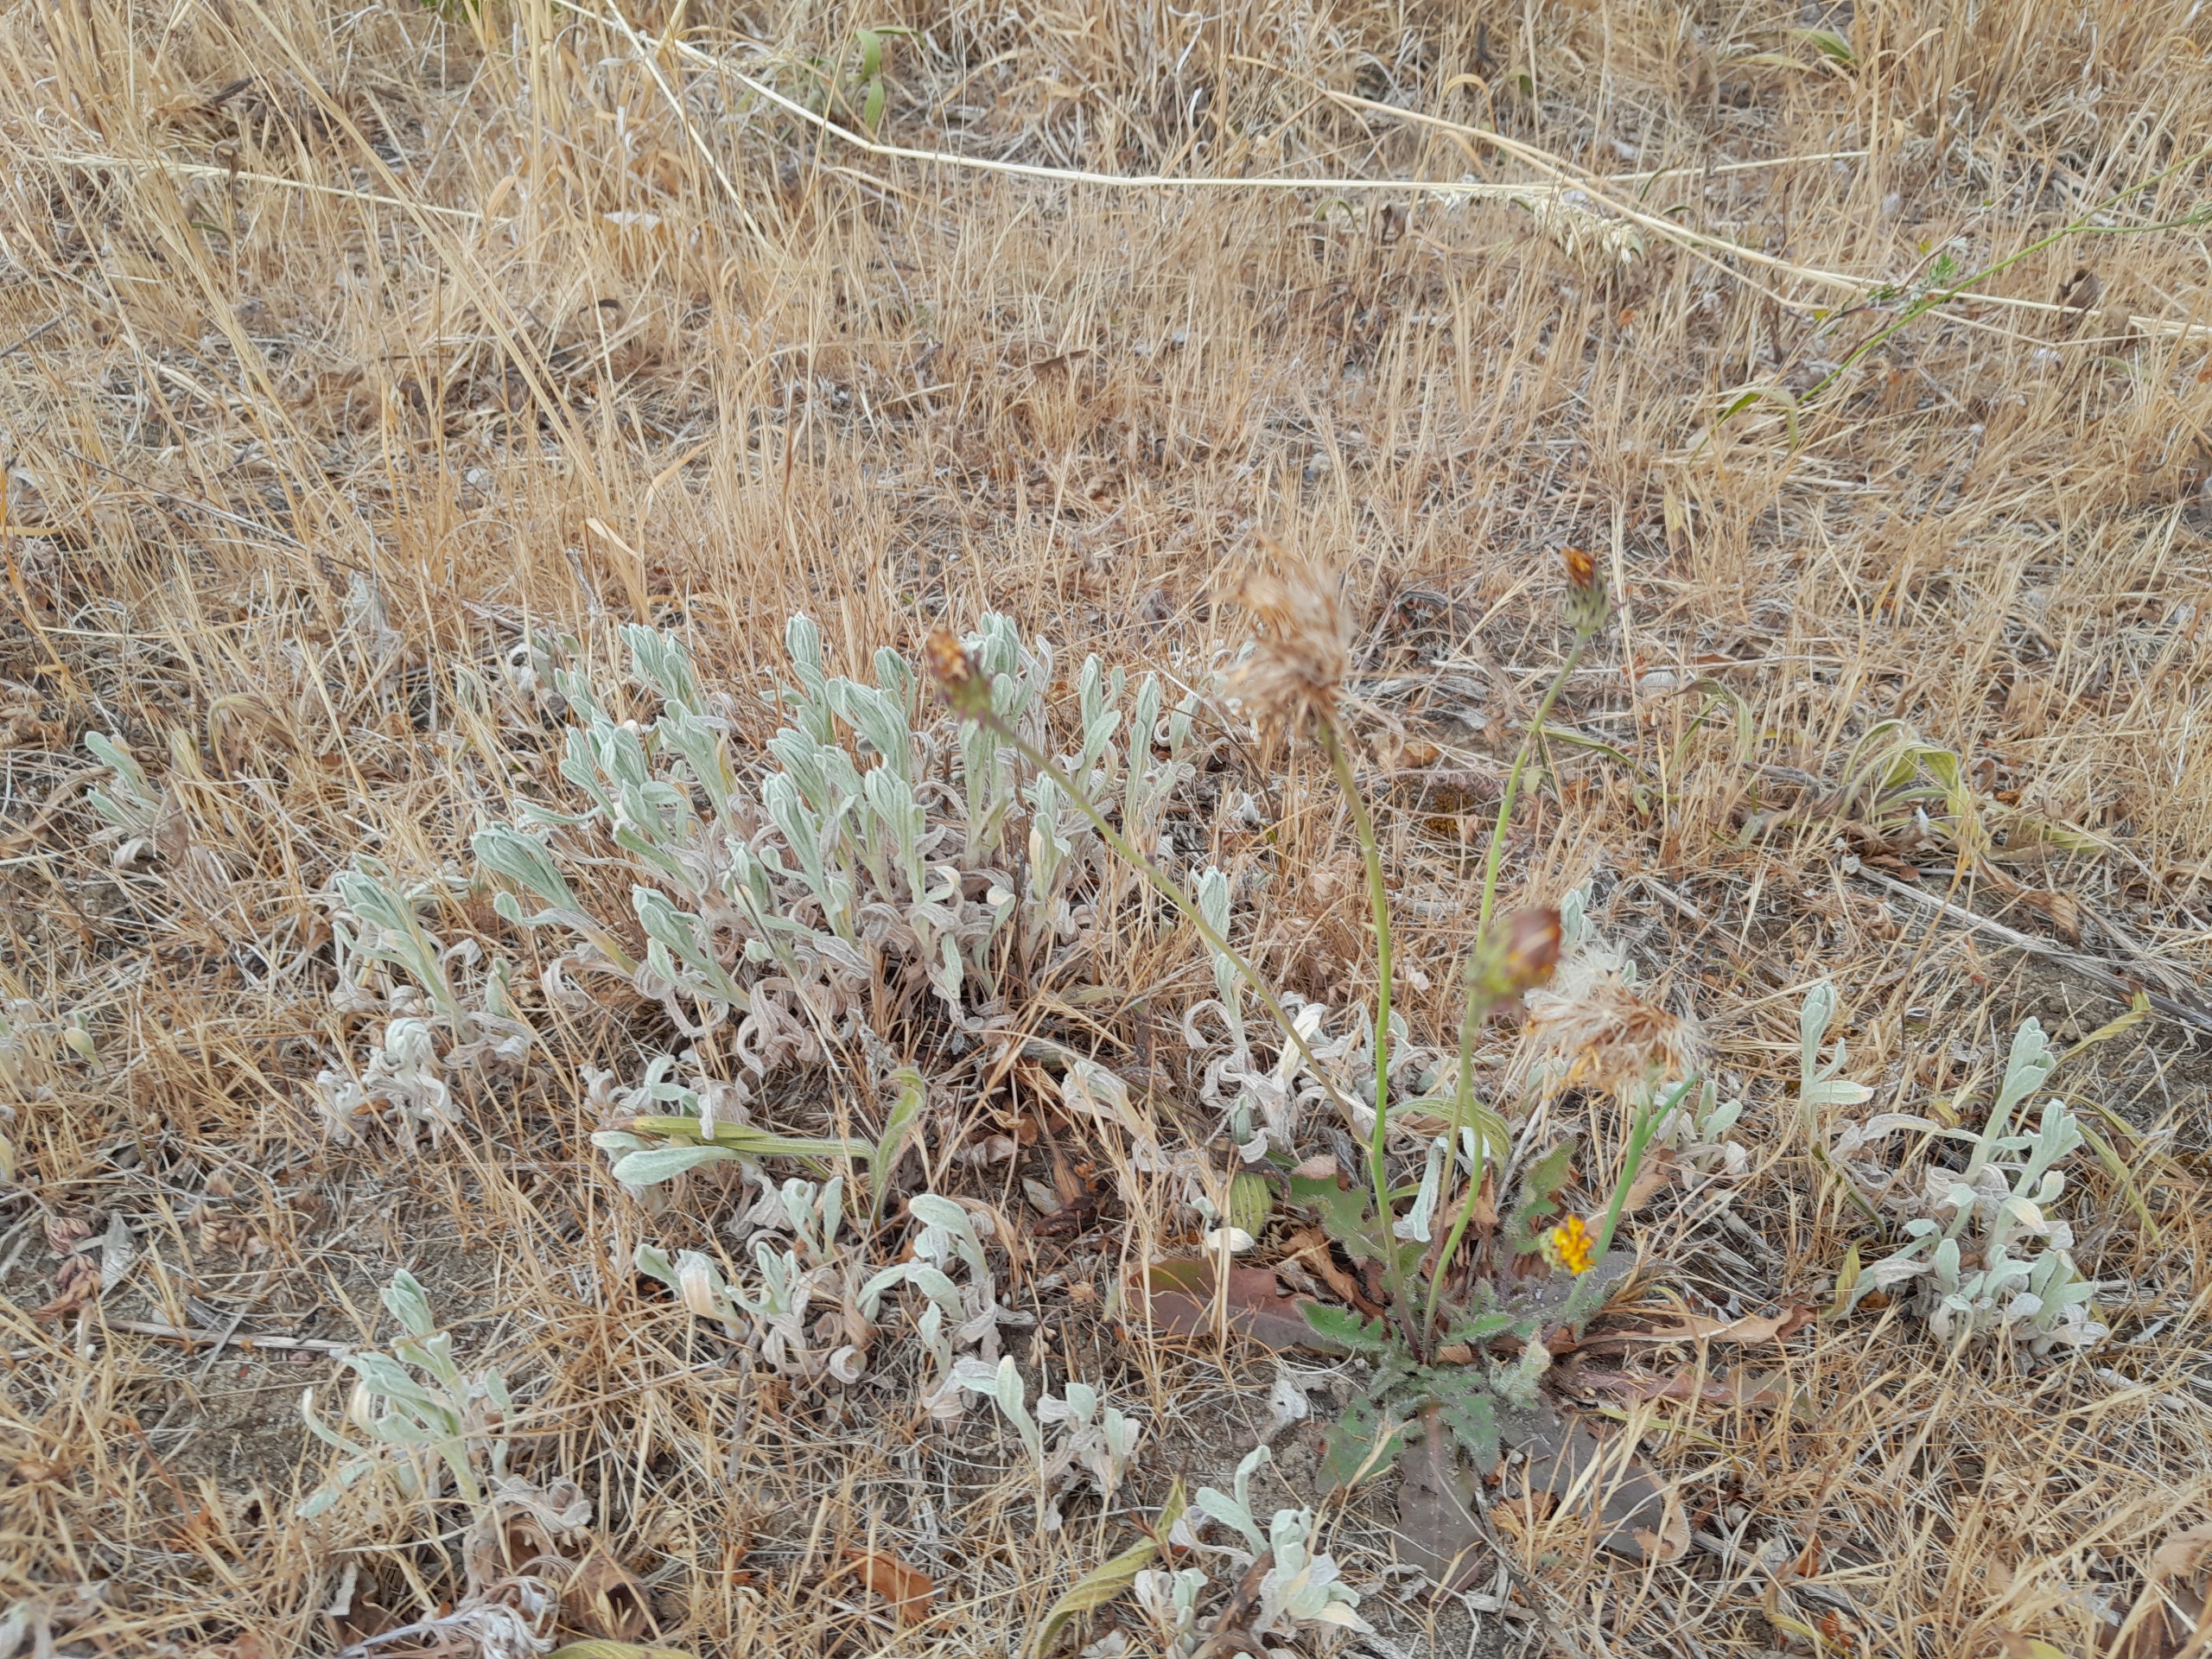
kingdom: Plantae
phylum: Tracheophyta
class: Magnoliopsida
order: Asterales
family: Asteraceae
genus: Helichrysum
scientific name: Helichrysum arenarium
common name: Gul evighedsblomst
